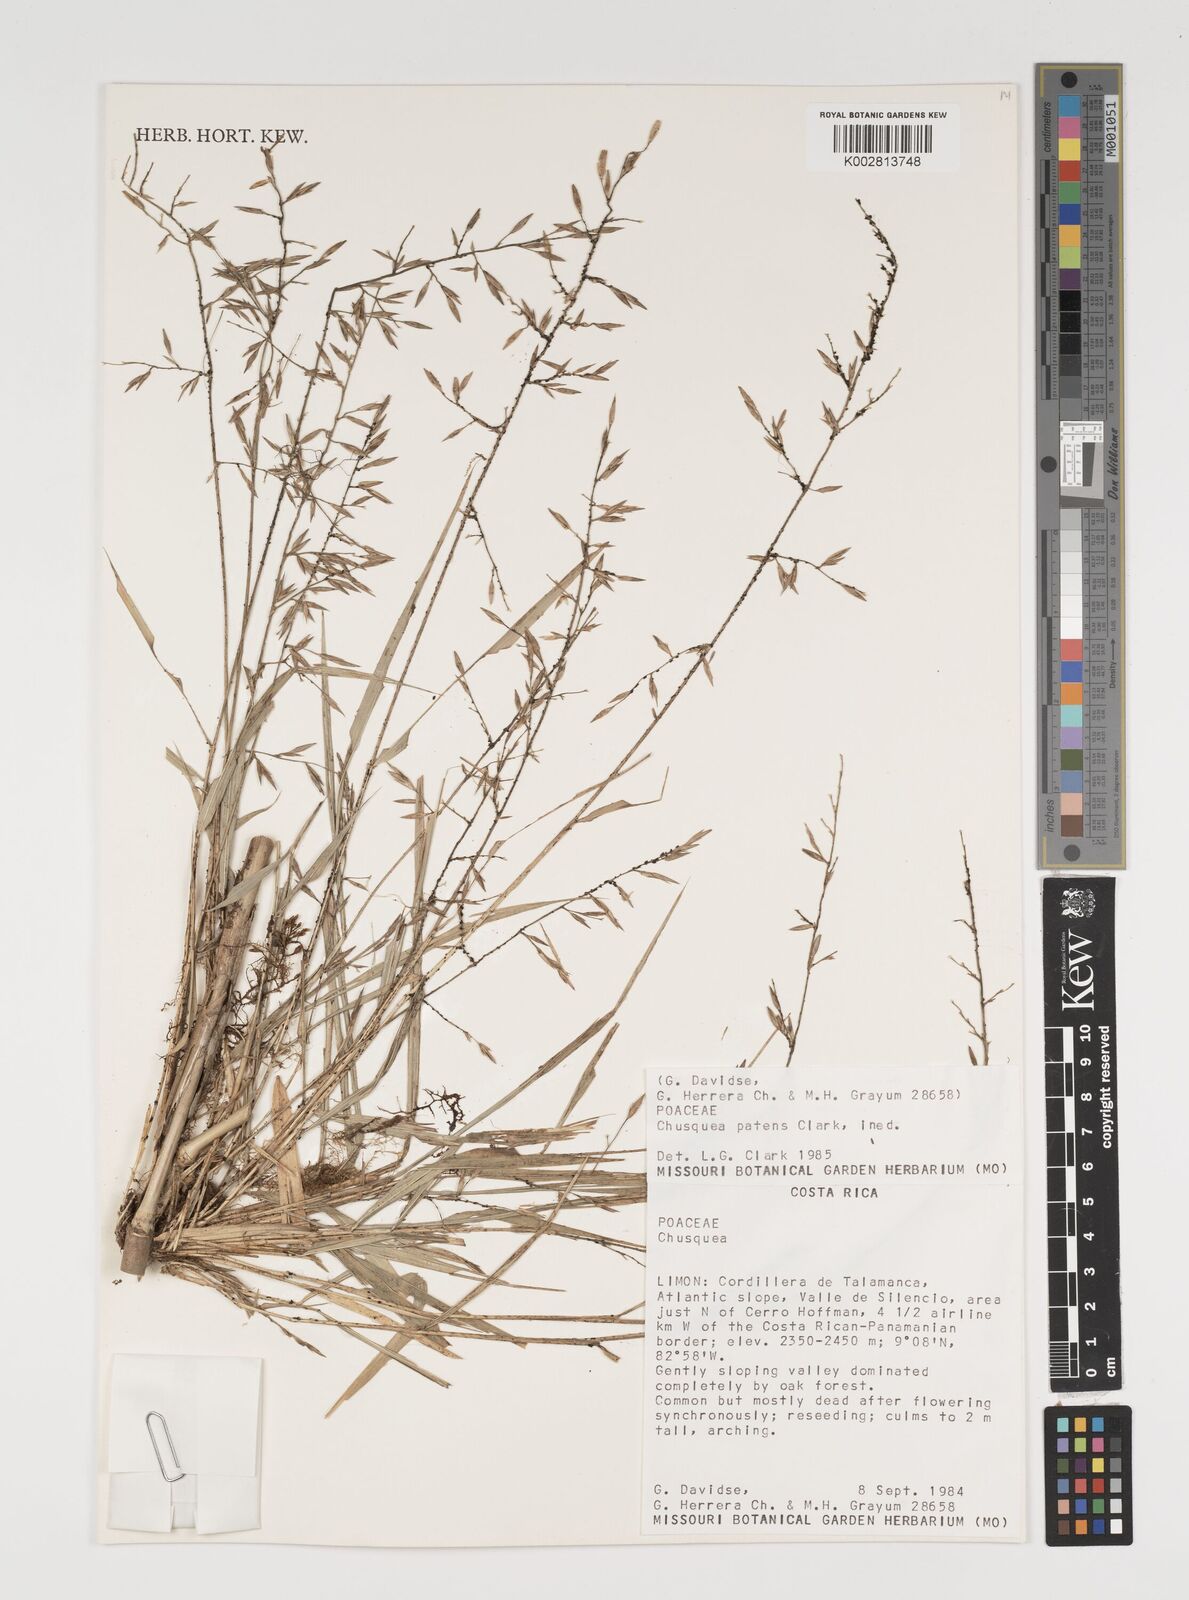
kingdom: Plantae
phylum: Tracheophyta
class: Liliopsida
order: Poales
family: Poaceae
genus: Chusquea
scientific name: Chusquea patens
